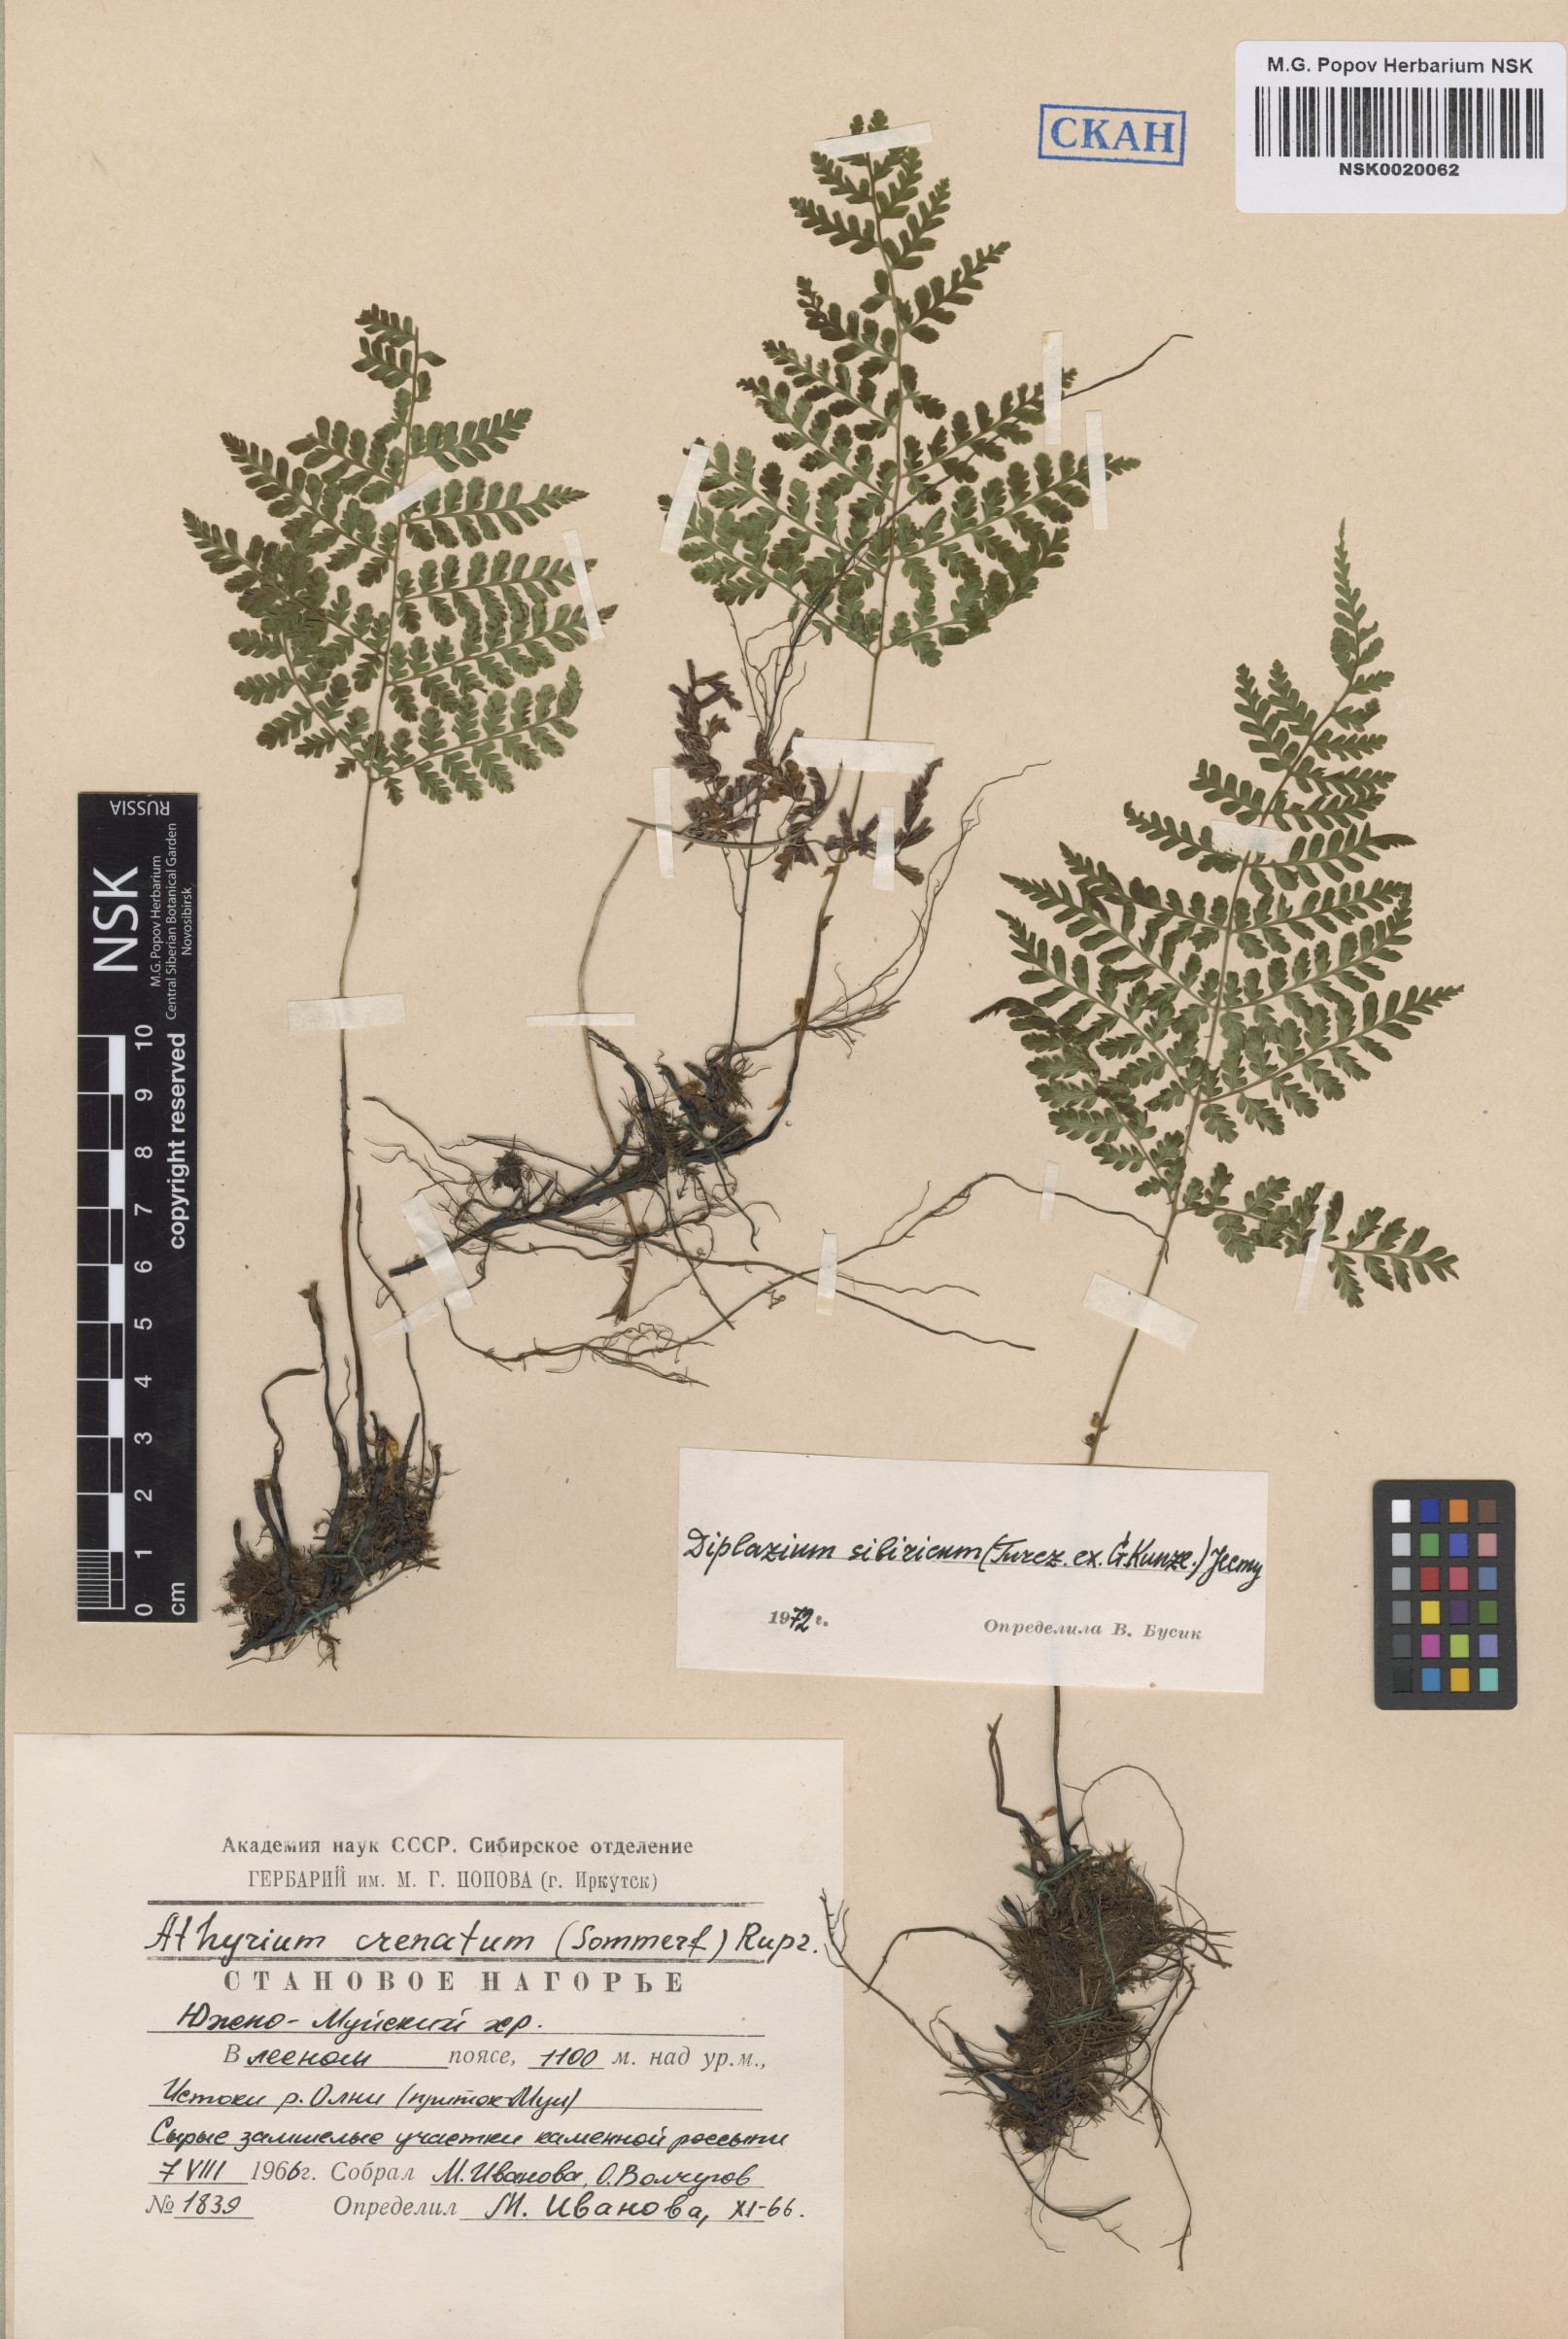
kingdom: Plantae
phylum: Tracheophyta
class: Polypodiopsida
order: Polypodiales
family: Athyriaceae
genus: Diplazium
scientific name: Diplazium sibiricum
